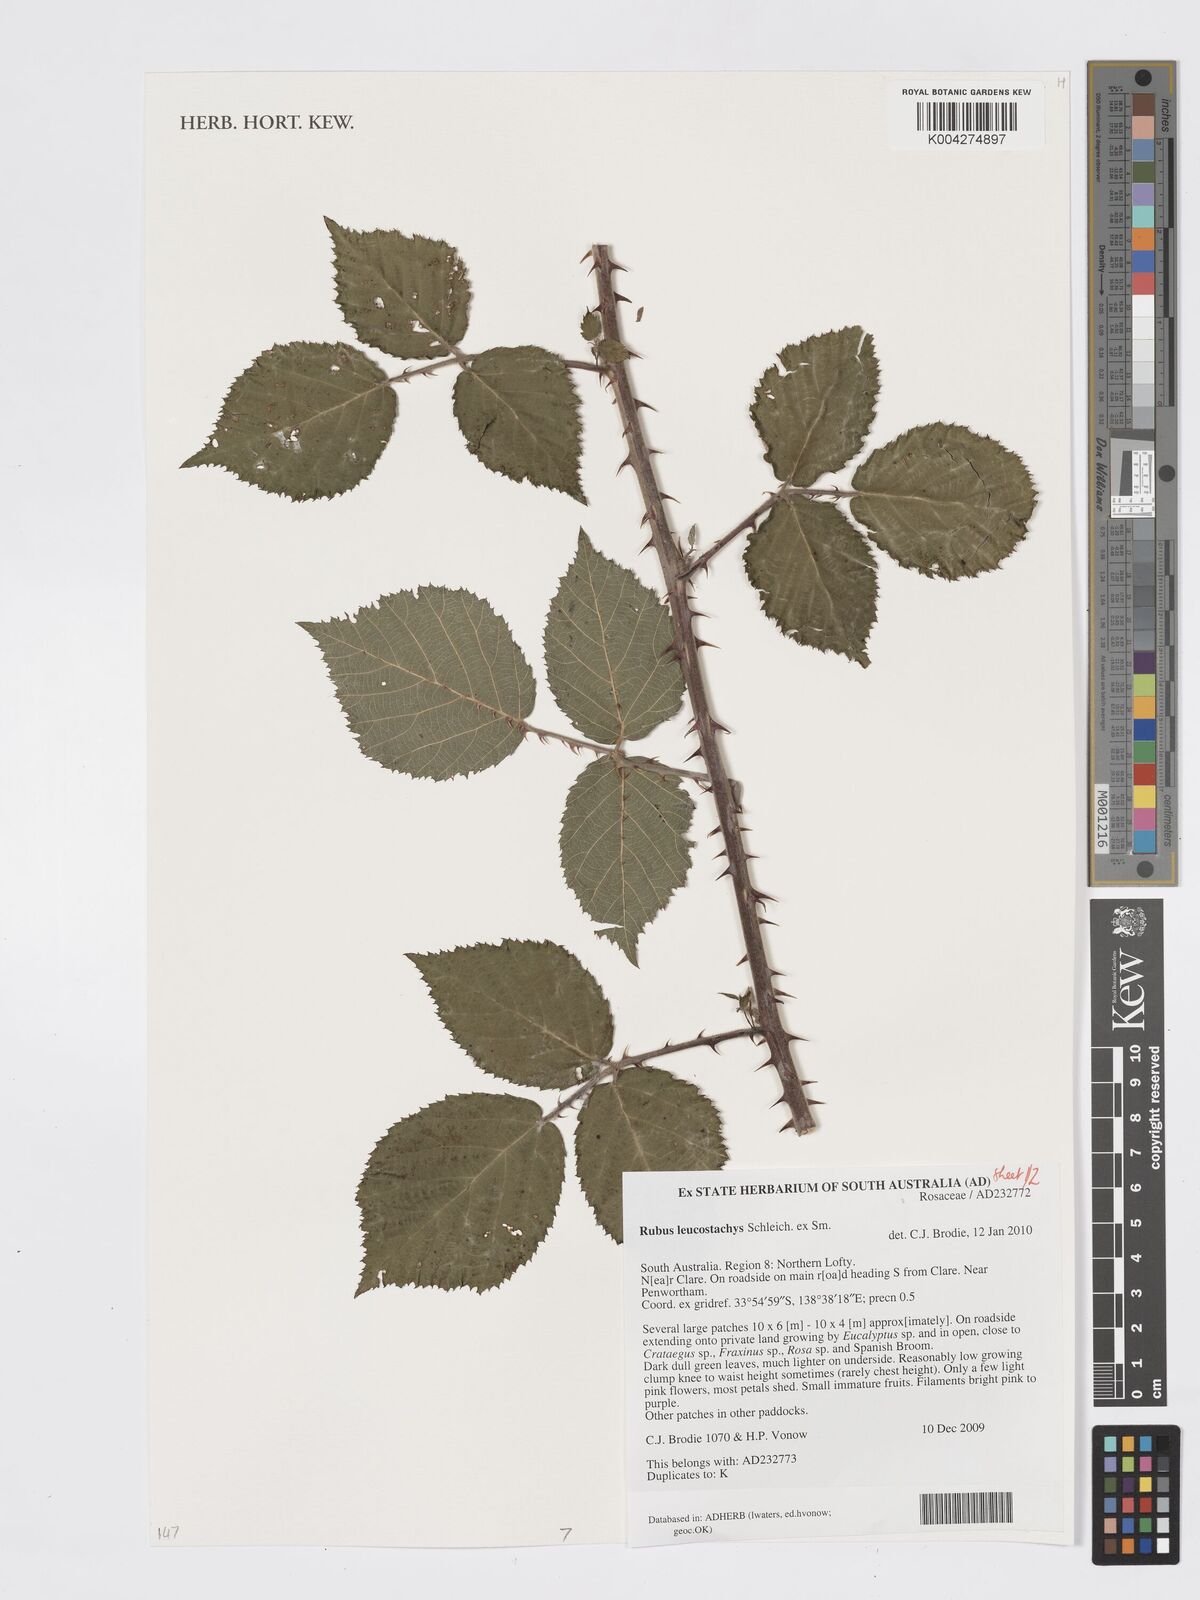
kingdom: Plantae
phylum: Tracheophyta
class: Magnoliopsida
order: Rosales
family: Rosaceae
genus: Rubus
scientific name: Rubus
